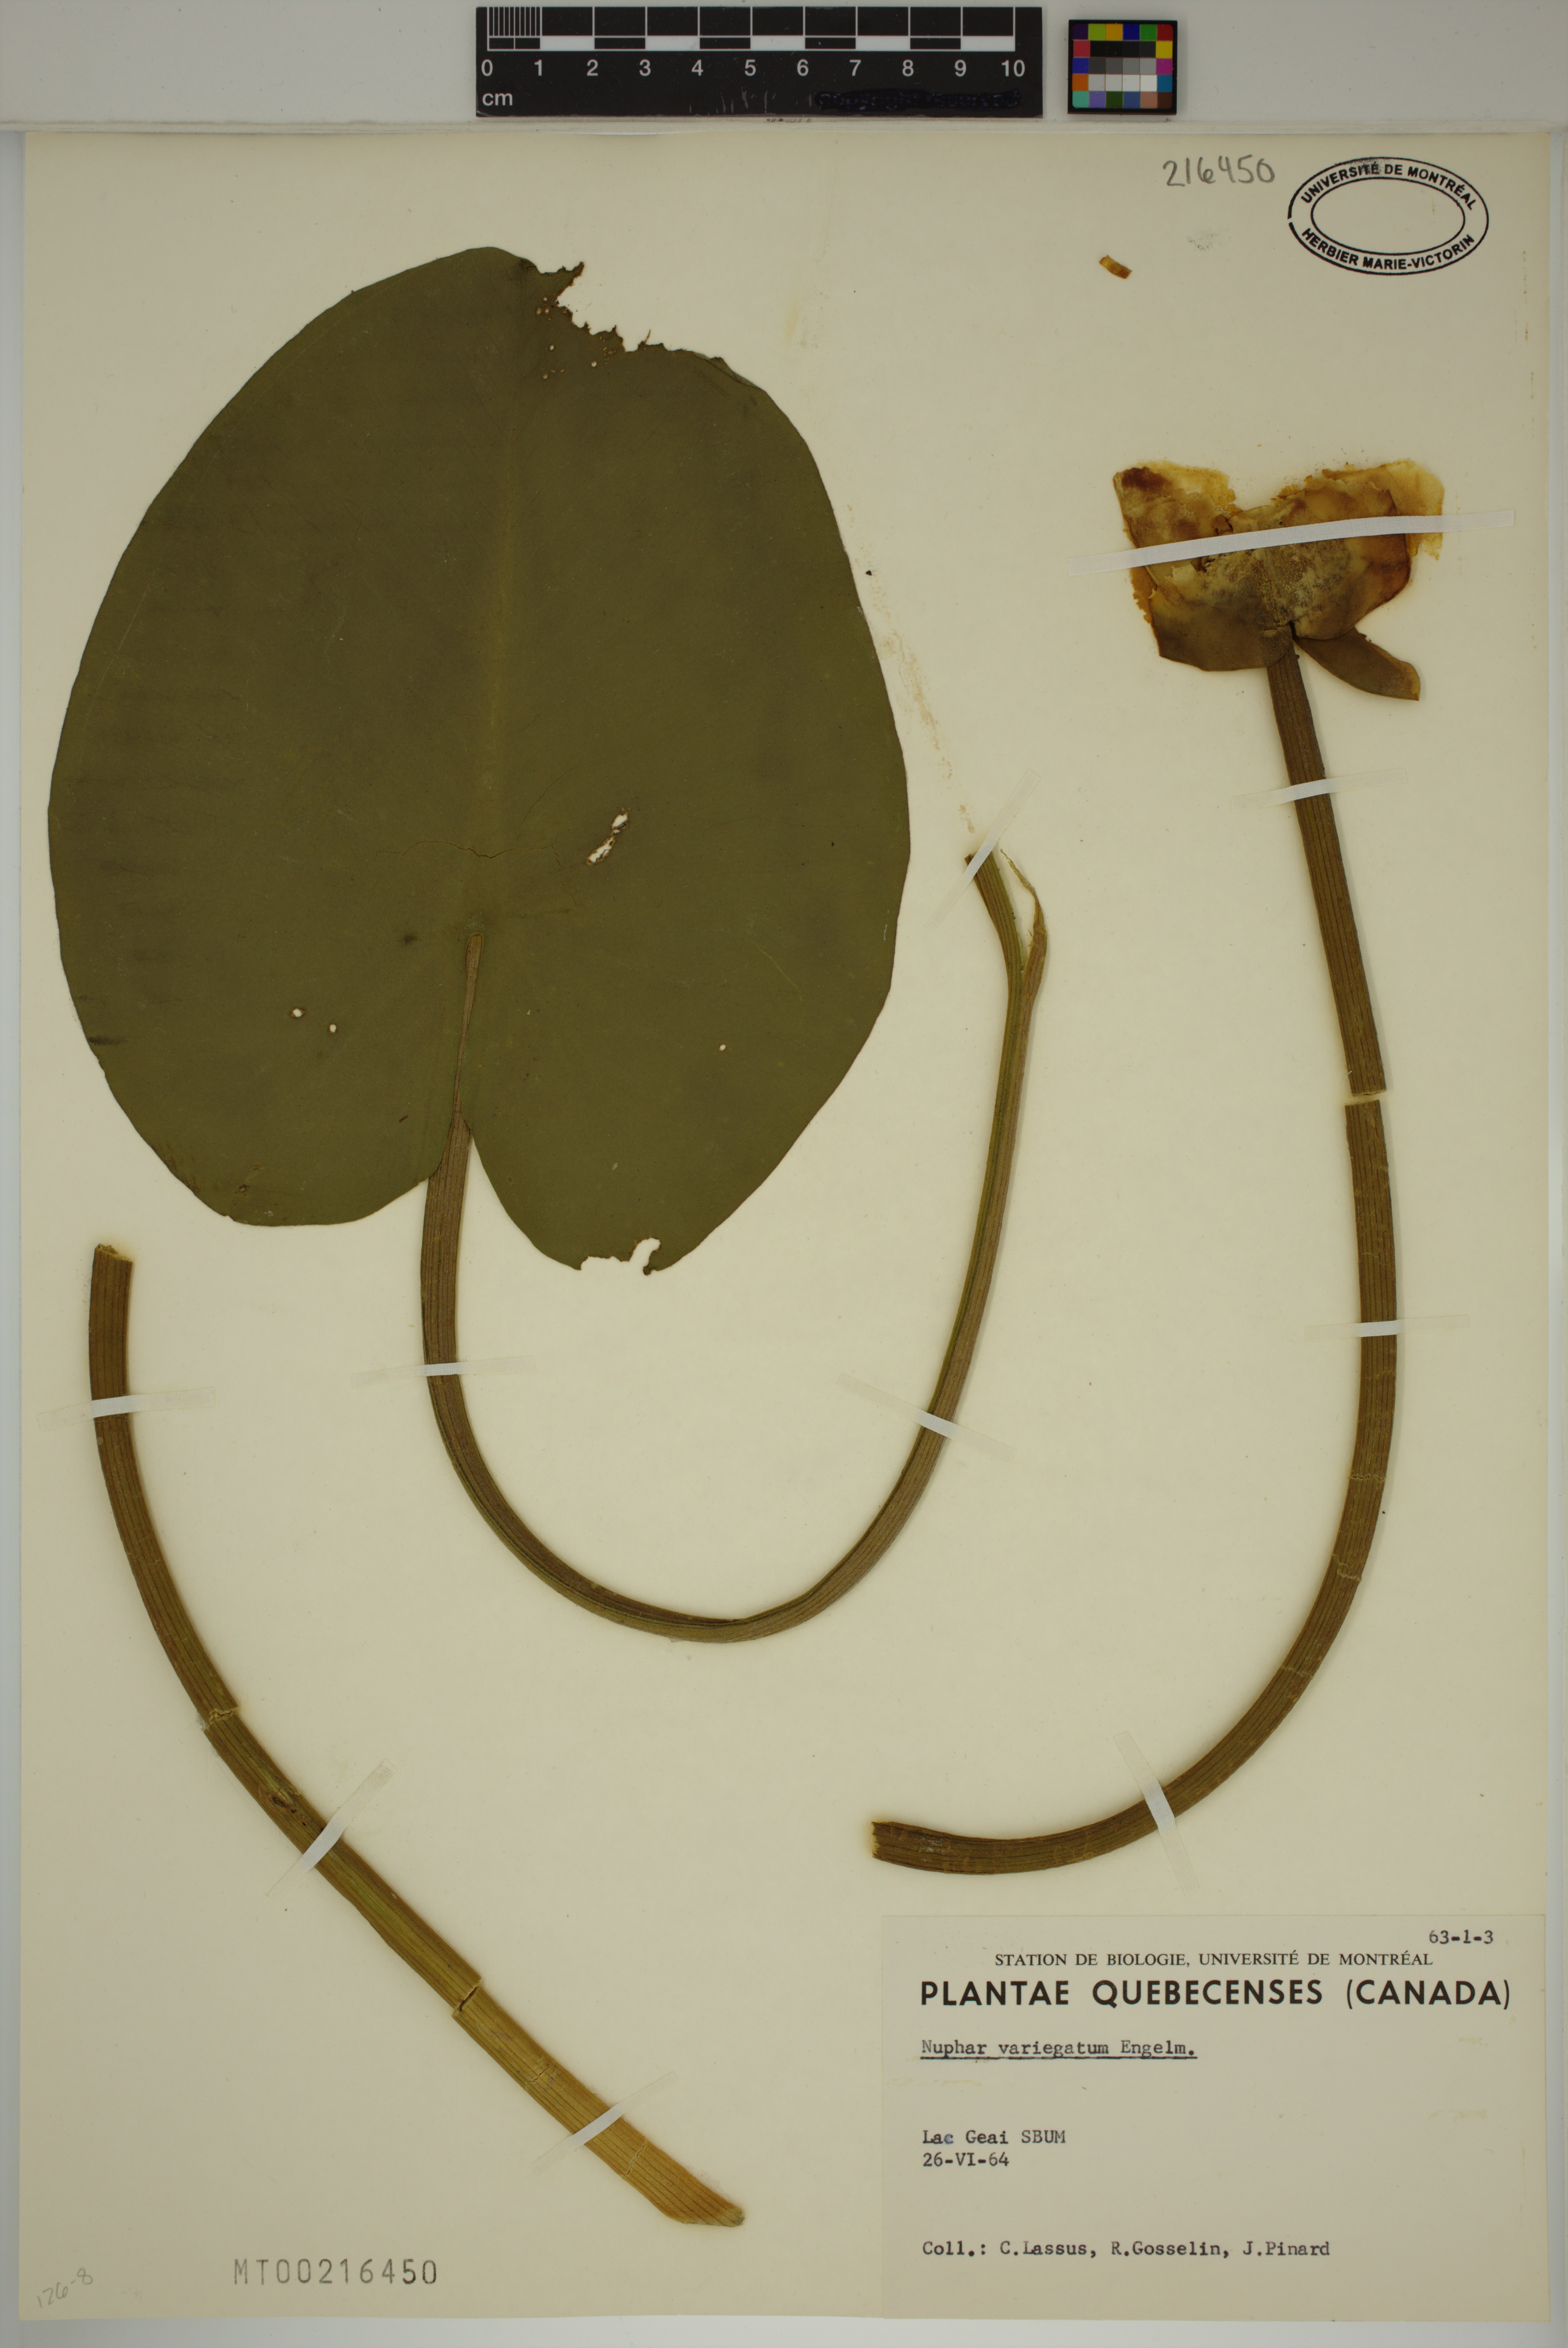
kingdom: Plantae
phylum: Tracheophyta
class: Magnoliopsida
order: Nymphaeales
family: Nymphaeaceae
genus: Nuphar
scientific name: Nuphar variegata
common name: Beaver-root
